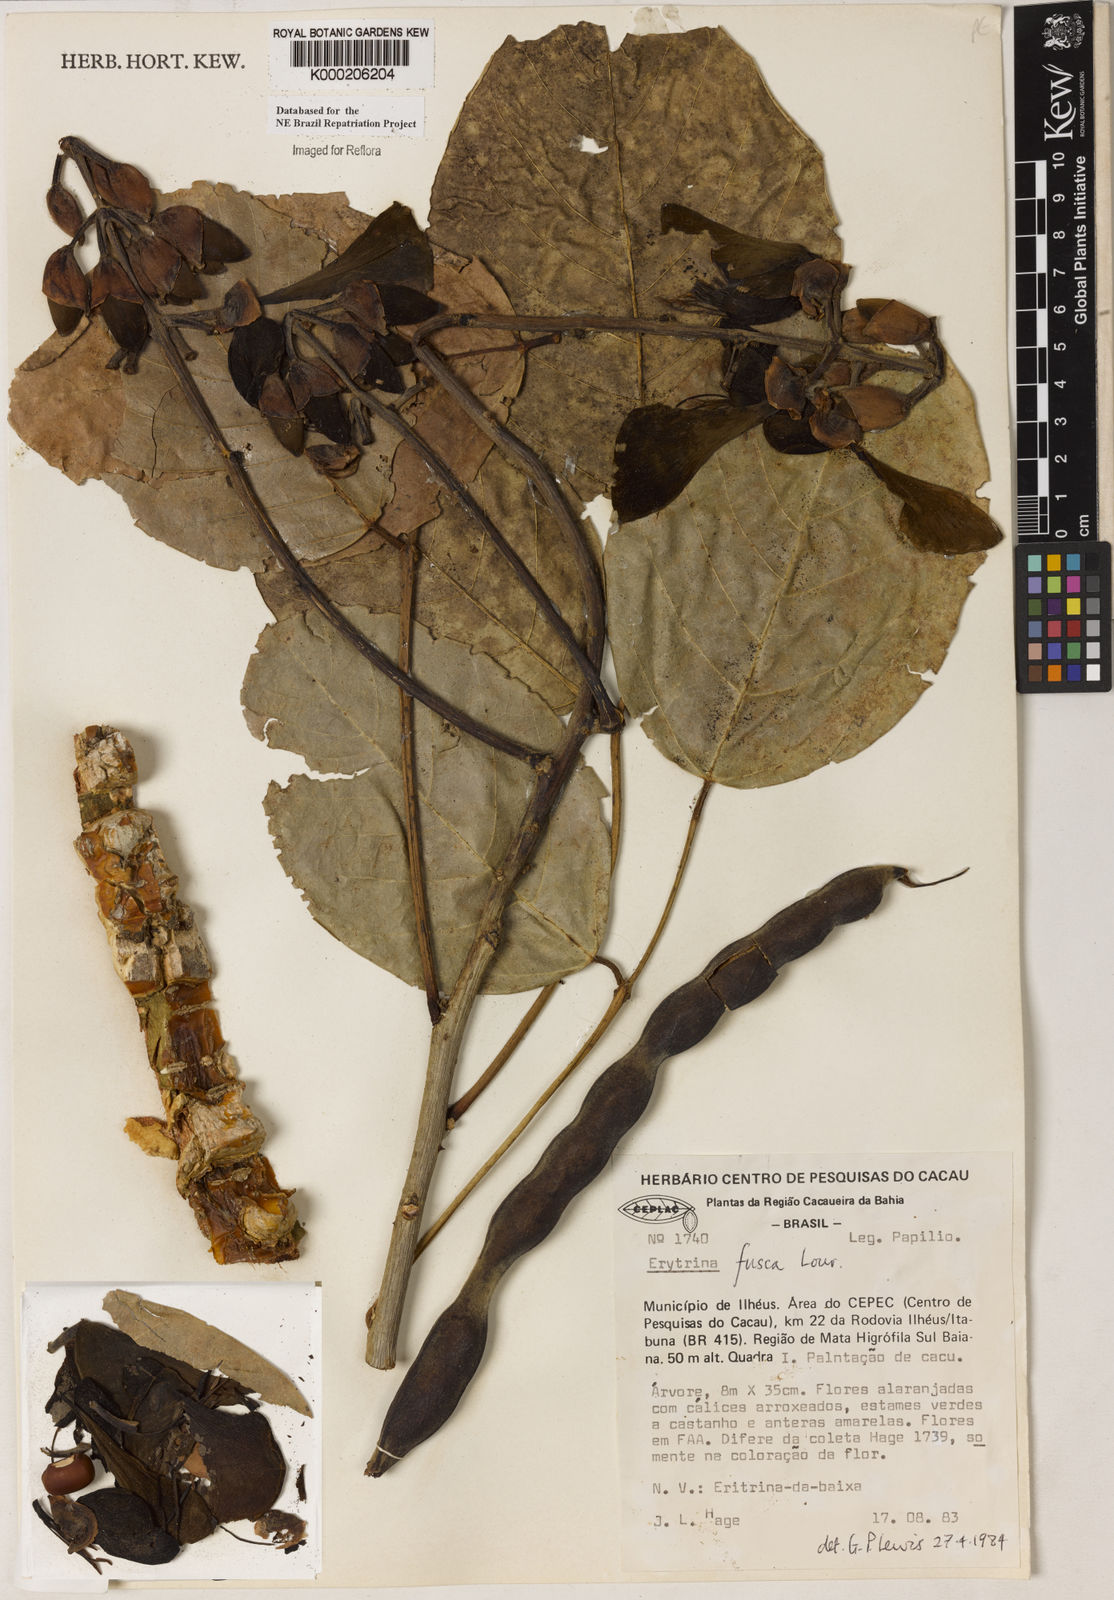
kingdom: Plantae
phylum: Tracheophyta
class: Magnoliopsida
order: Fabales
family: Fabaceae
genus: Erythrina
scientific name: Erythrina fusca
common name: Coral-bean
